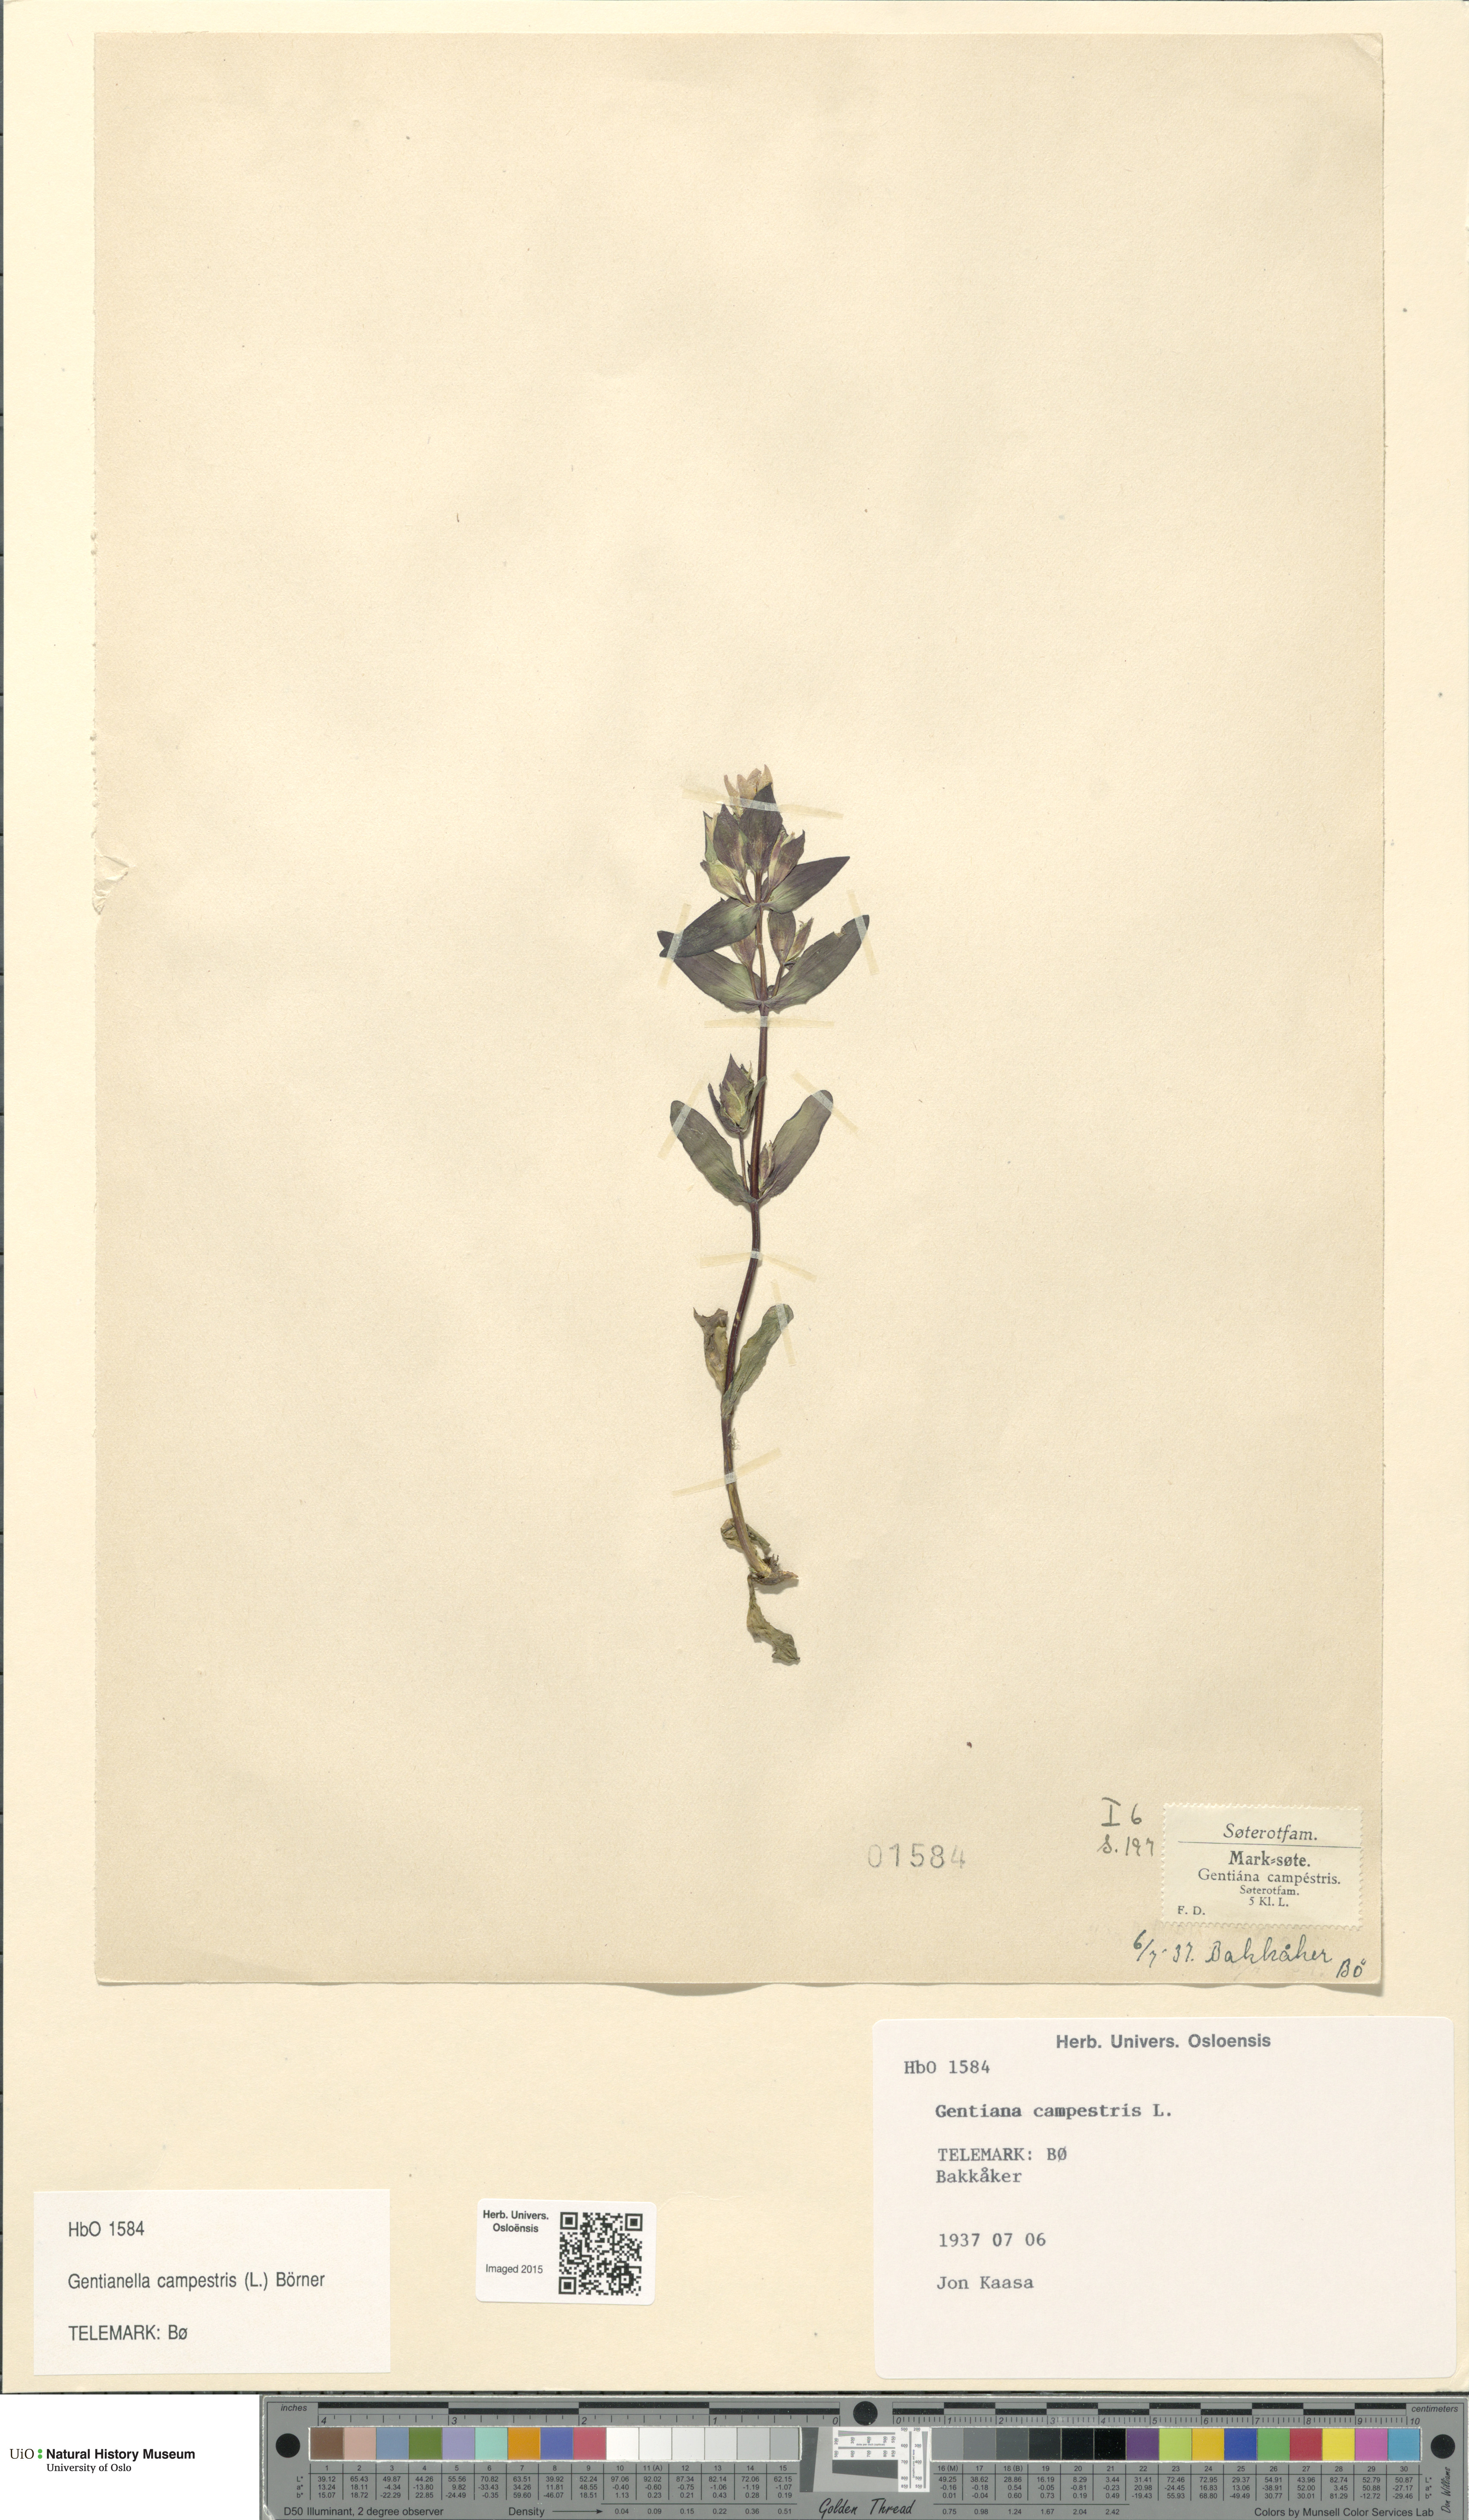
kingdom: Plantae
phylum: Tracheophyta
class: Magnoliopsida
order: Gentianales
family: Gentianaceae
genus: Gentianella
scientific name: Gentianella campestris
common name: Field gentian
